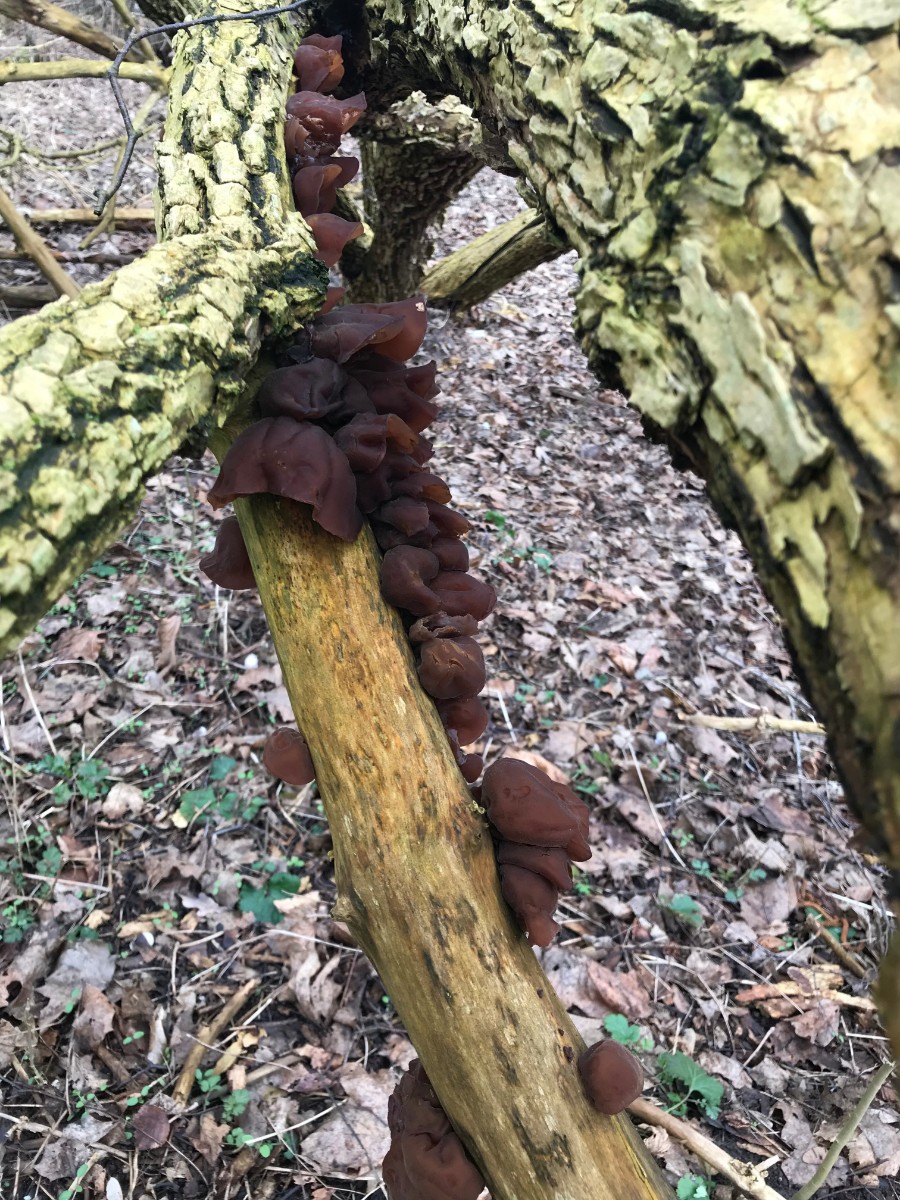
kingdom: Fungi
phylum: Basidiomycota
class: Agaricomycetes
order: Auriculariales
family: Auriculariaceae
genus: Auricularia
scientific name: Auricularia auricula-judae
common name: almindelig judasøre
